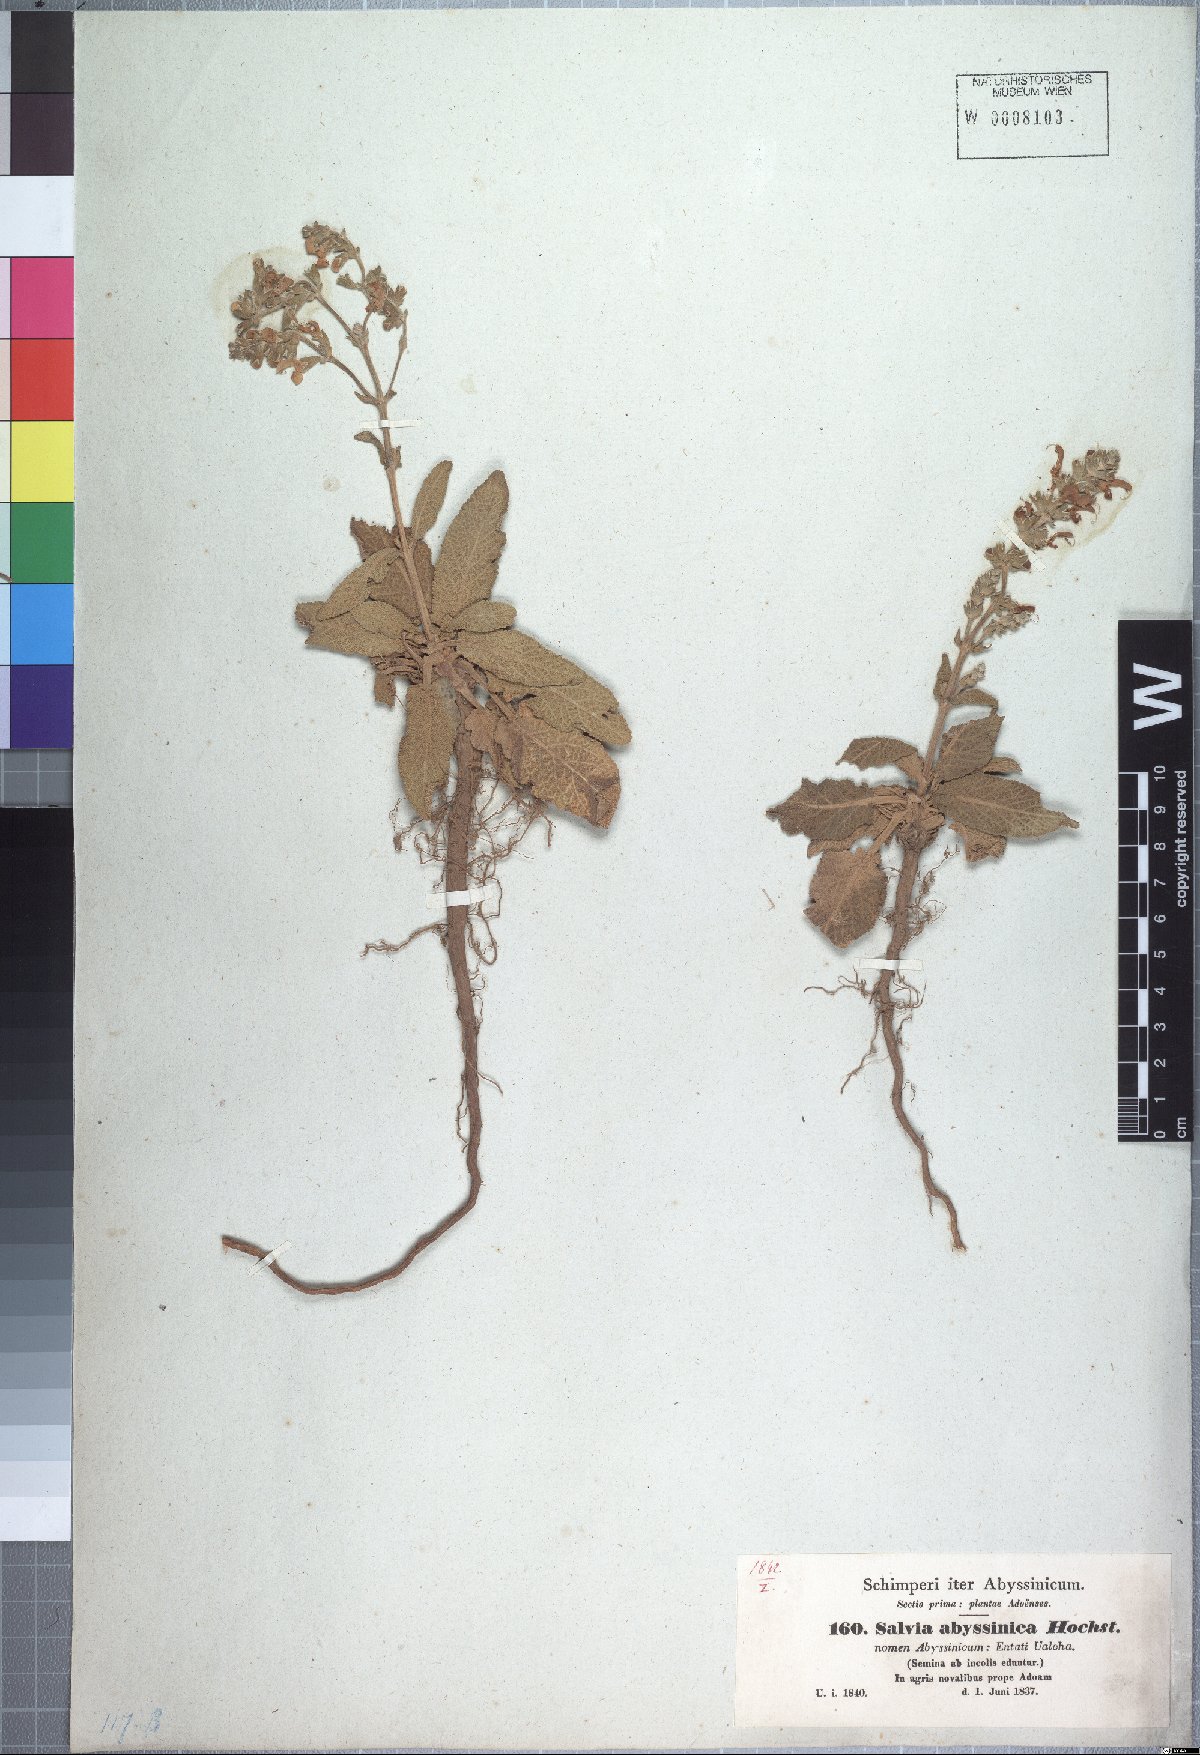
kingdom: Plantae
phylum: Tracheophyta
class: Magnoliopsida
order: Lamiales
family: Lamiaceae
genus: Salvia
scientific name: Salvia merjamie
